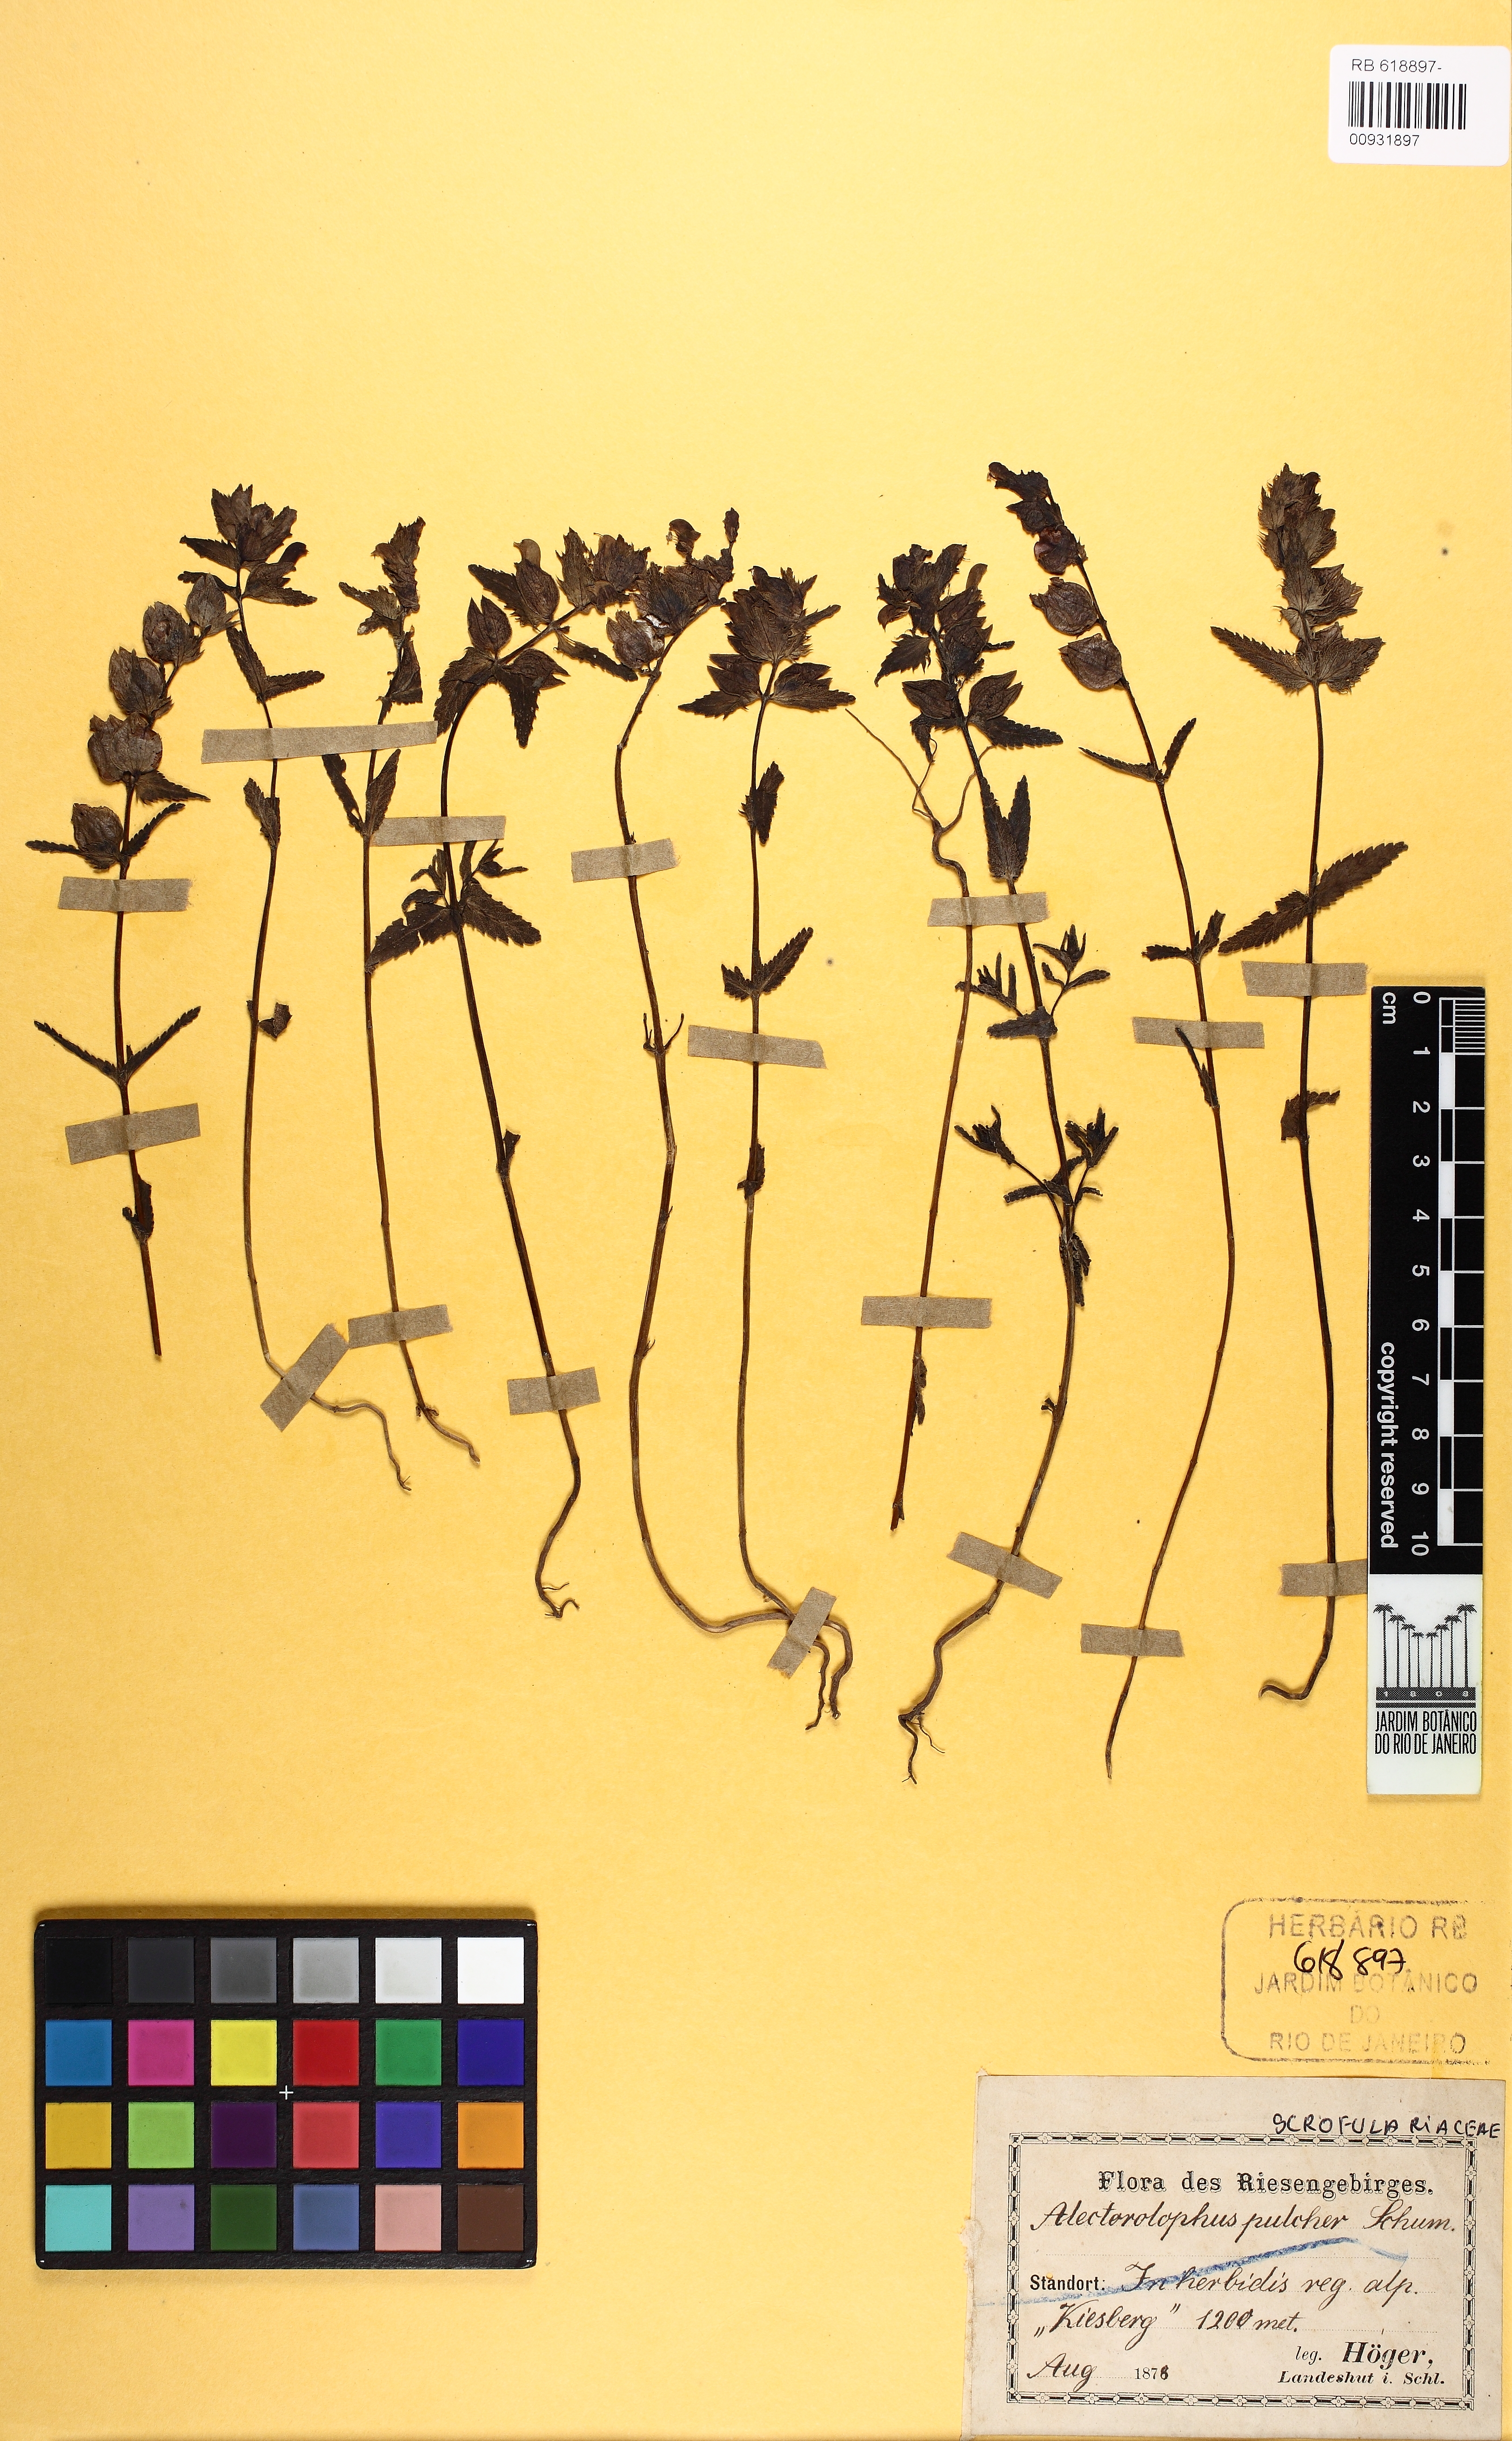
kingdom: Plantae
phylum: Tracheophyta
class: Magnoliopsida
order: Lamiales
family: Orobanchaceae
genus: Rhinanthus
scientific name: Rhinanthus riphaeus
